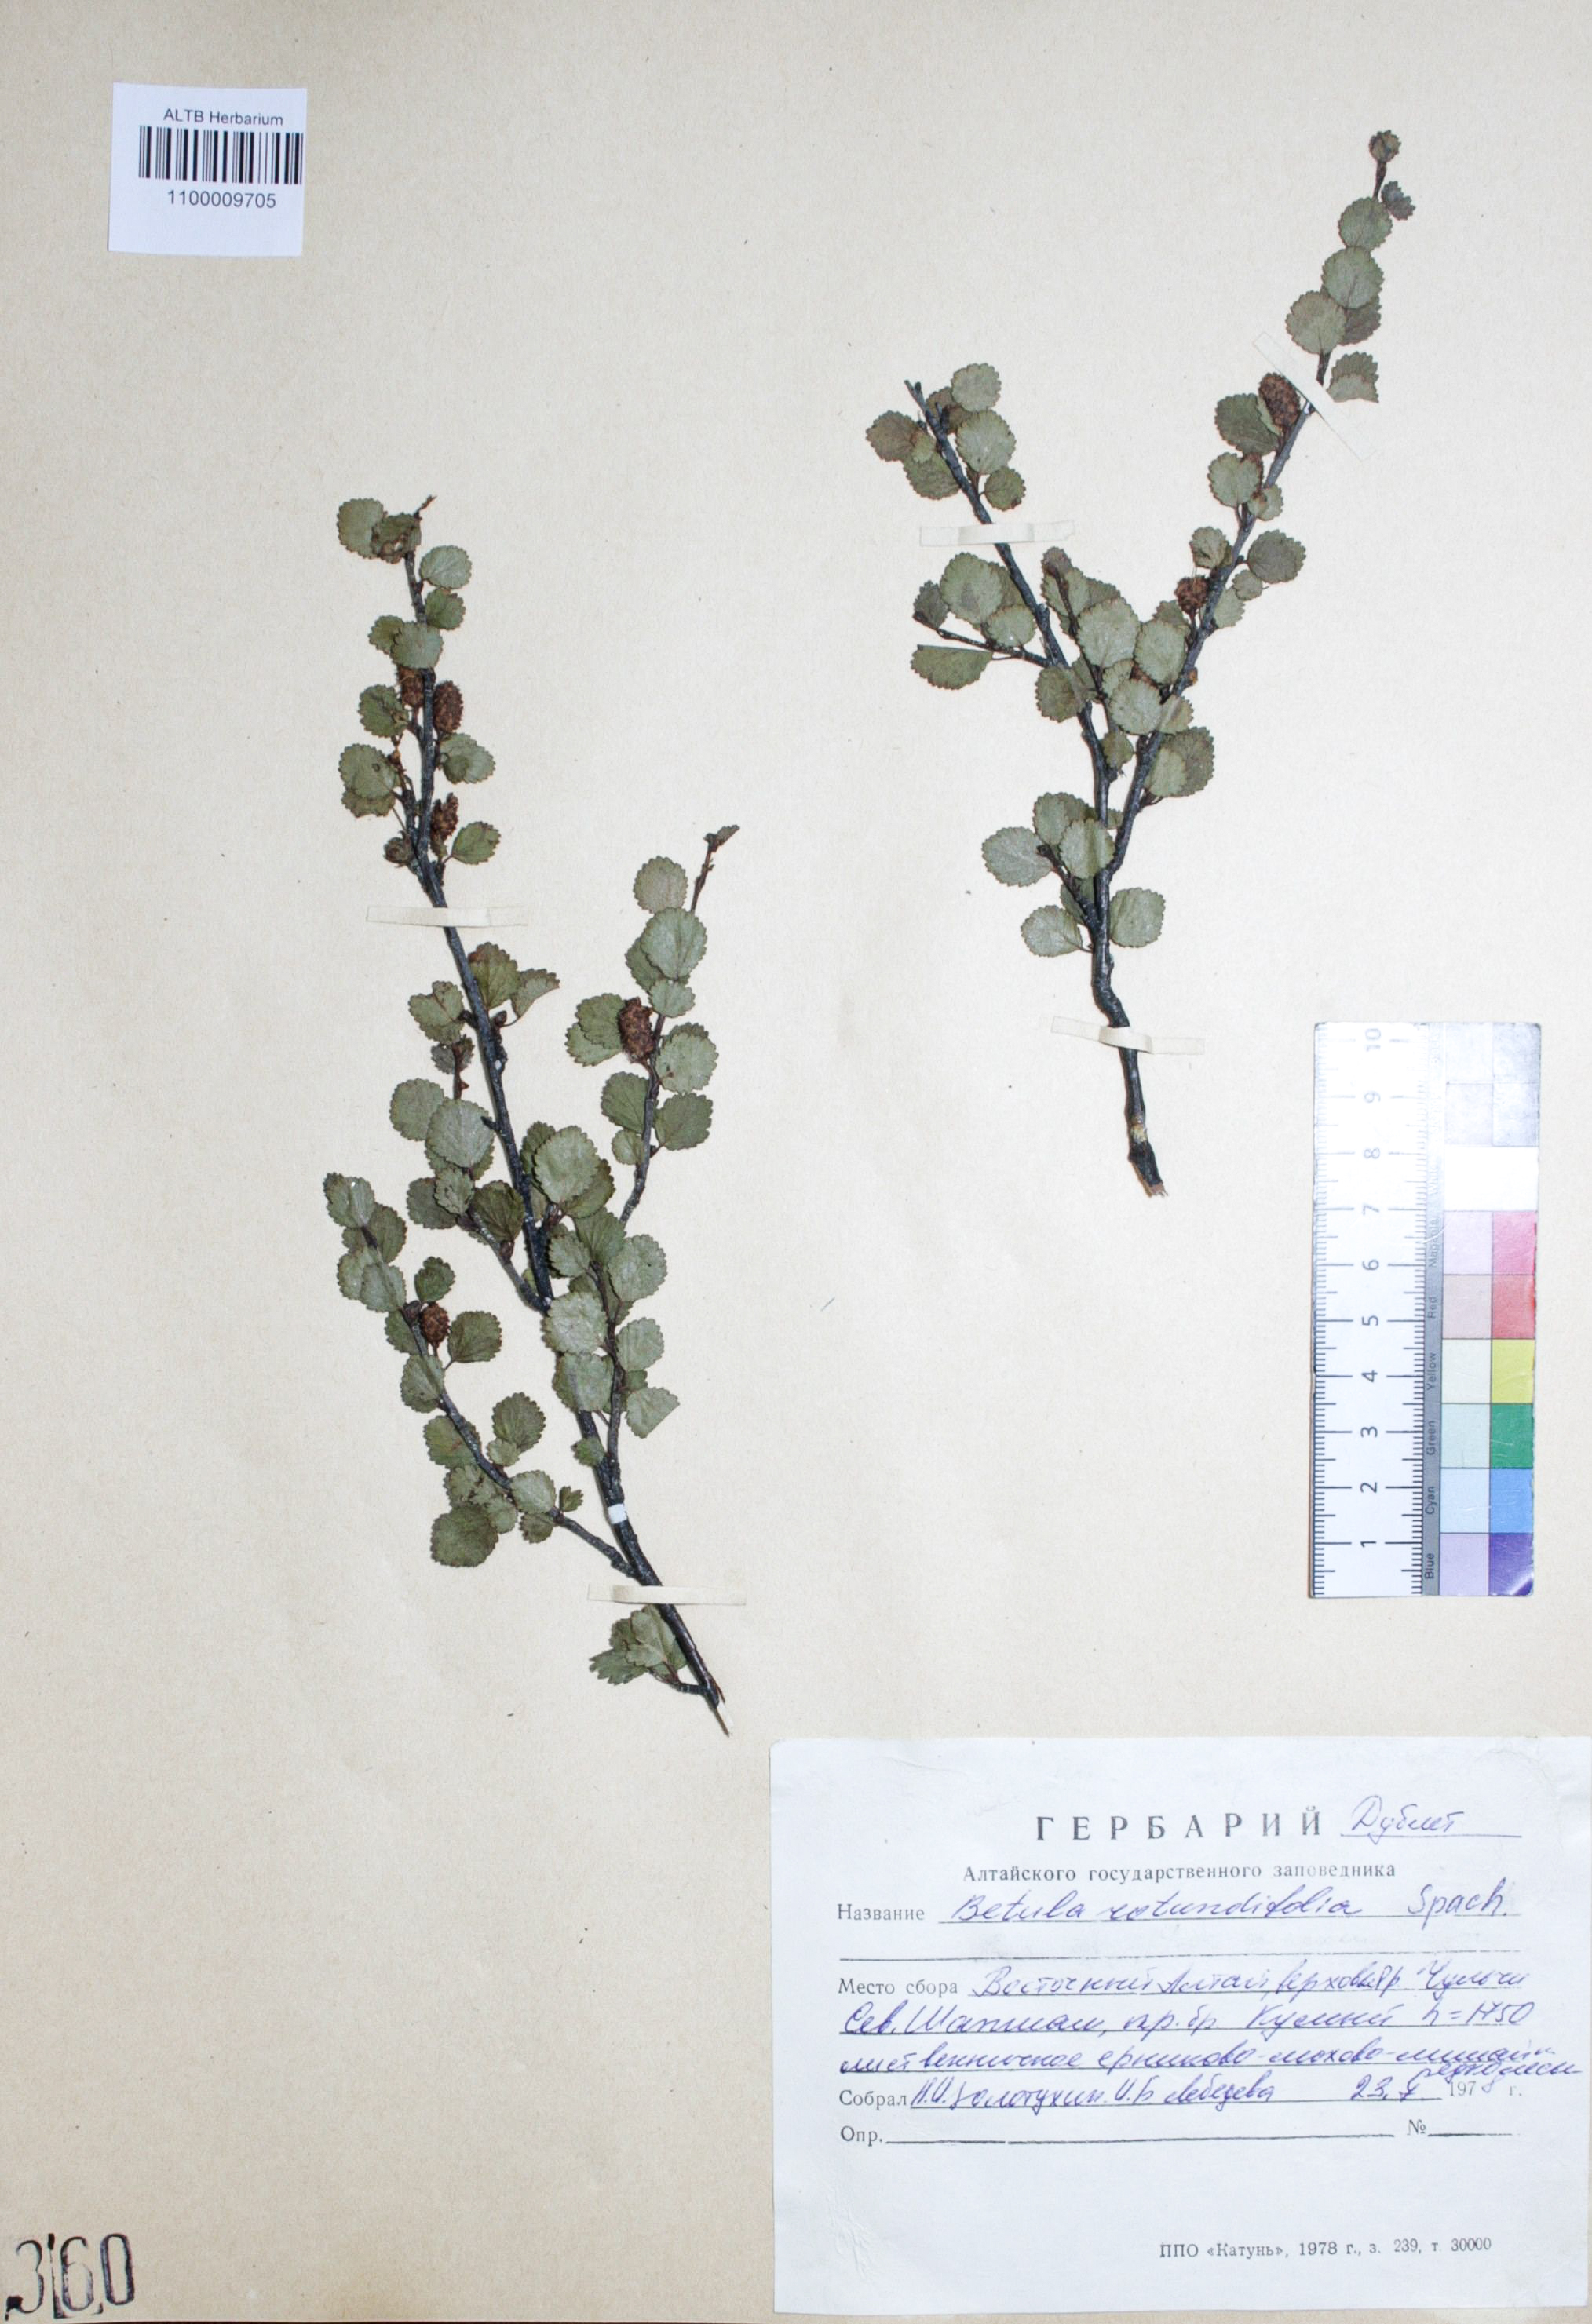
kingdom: Plantae
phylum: Tracheophyta
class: Magnoliopsida
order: Fagales
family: Betulaceae
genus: Betula
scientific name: Betula glandulosa
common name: Dwarf birch
